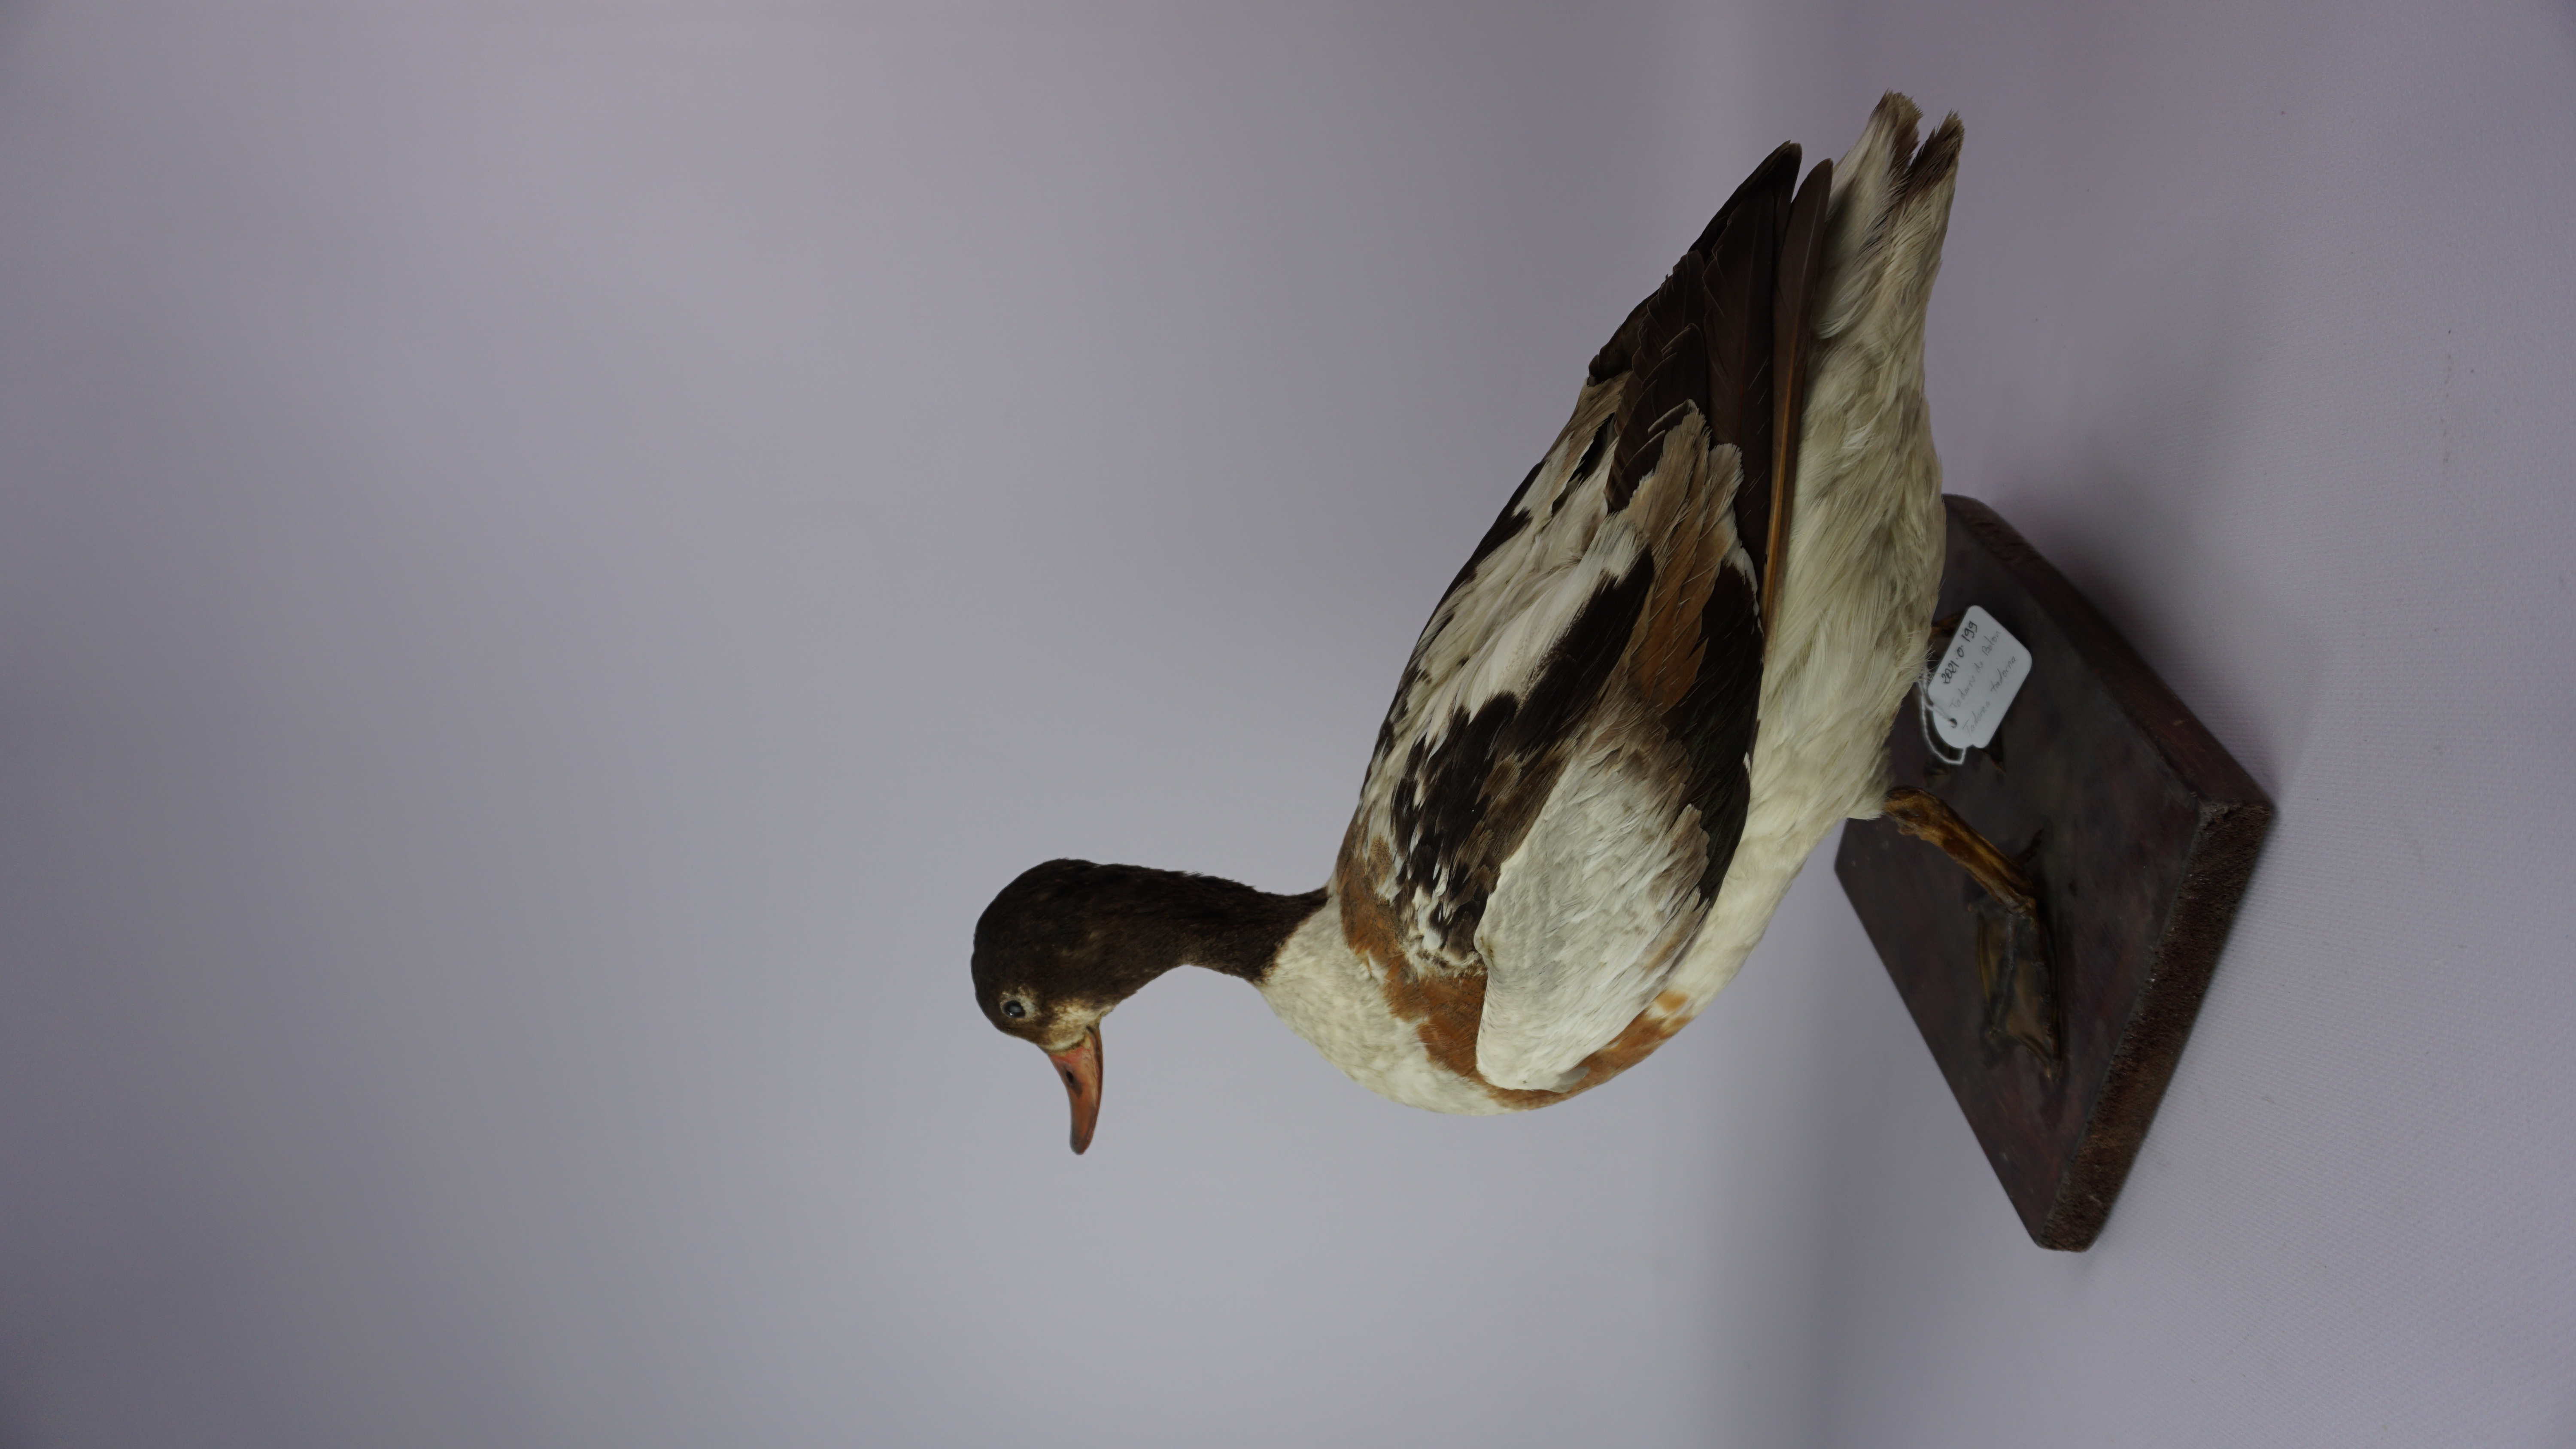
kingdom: Animalia
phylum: Chordata
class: Aves
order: Anseriformes
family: Anatidae
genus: Tadorna
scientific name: Tadorna tadorna
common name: Common shelduck
